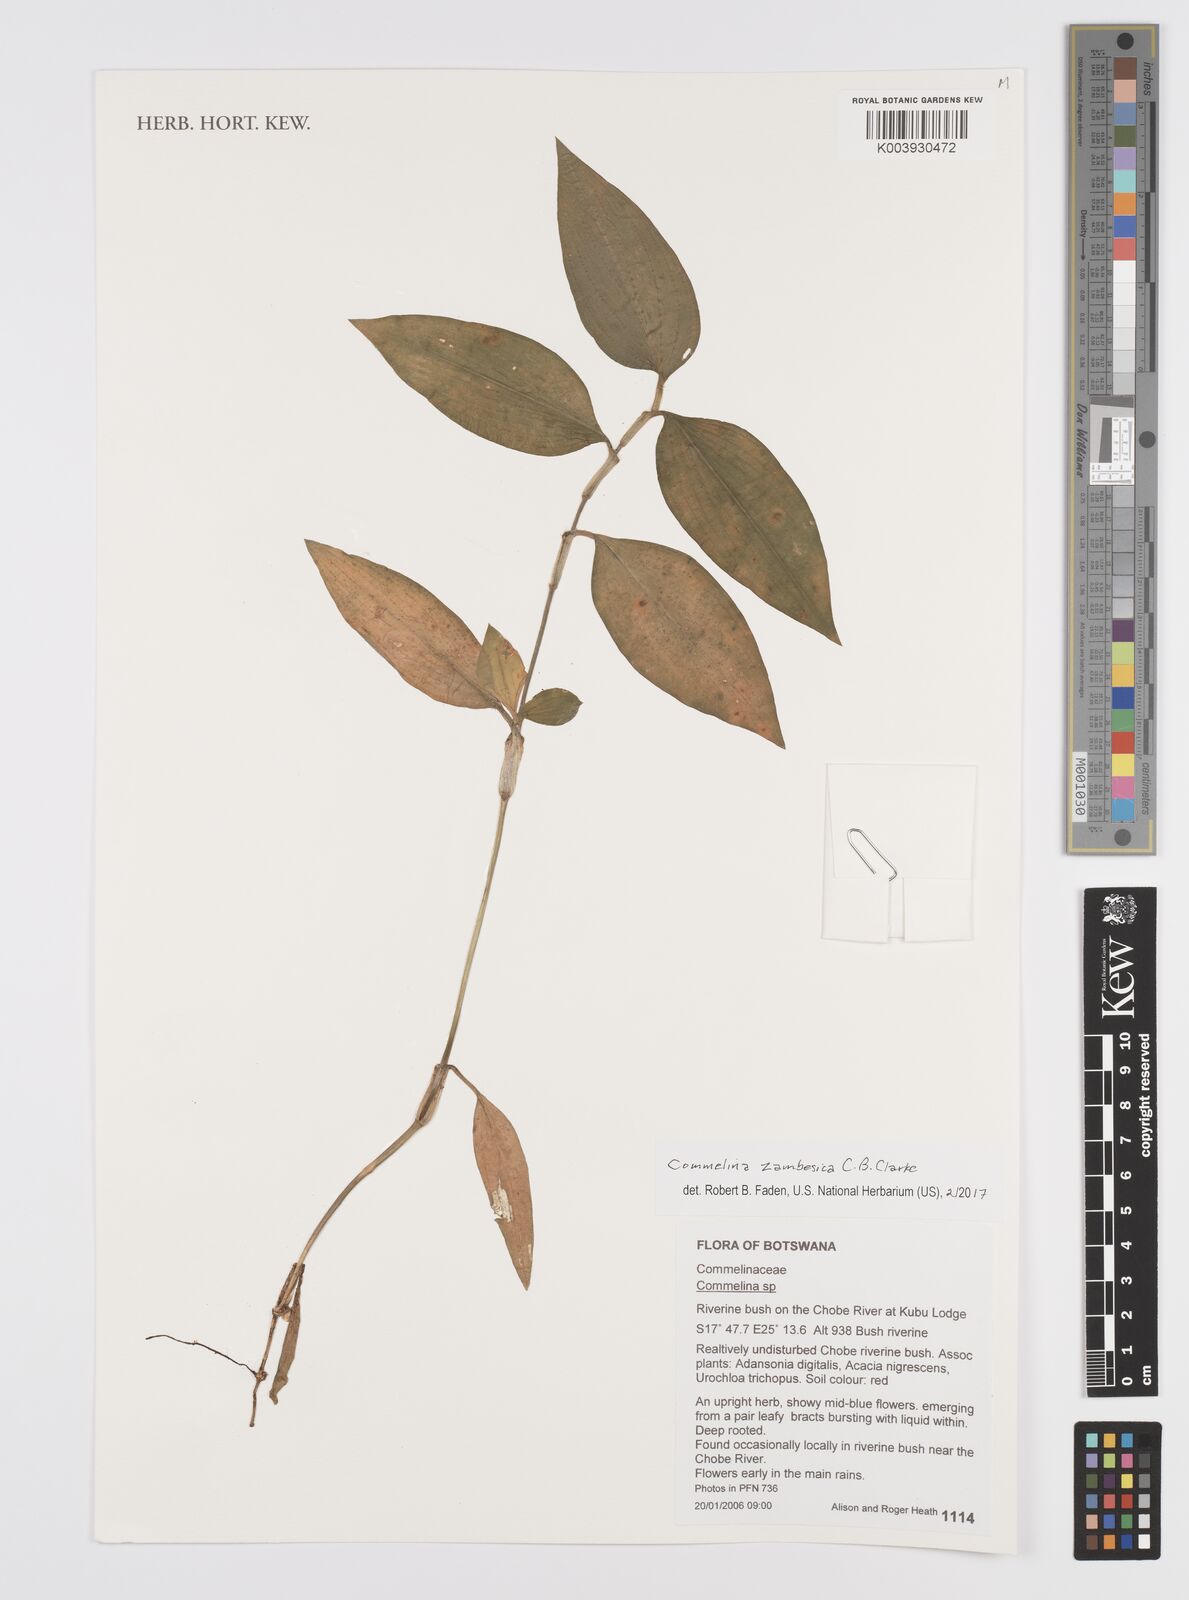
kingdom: Plantae
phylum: Tracheophyta
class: Liliopsida
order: Commelinales
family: Commelinaceae
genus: Commelina
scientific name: Commelina zambesica
